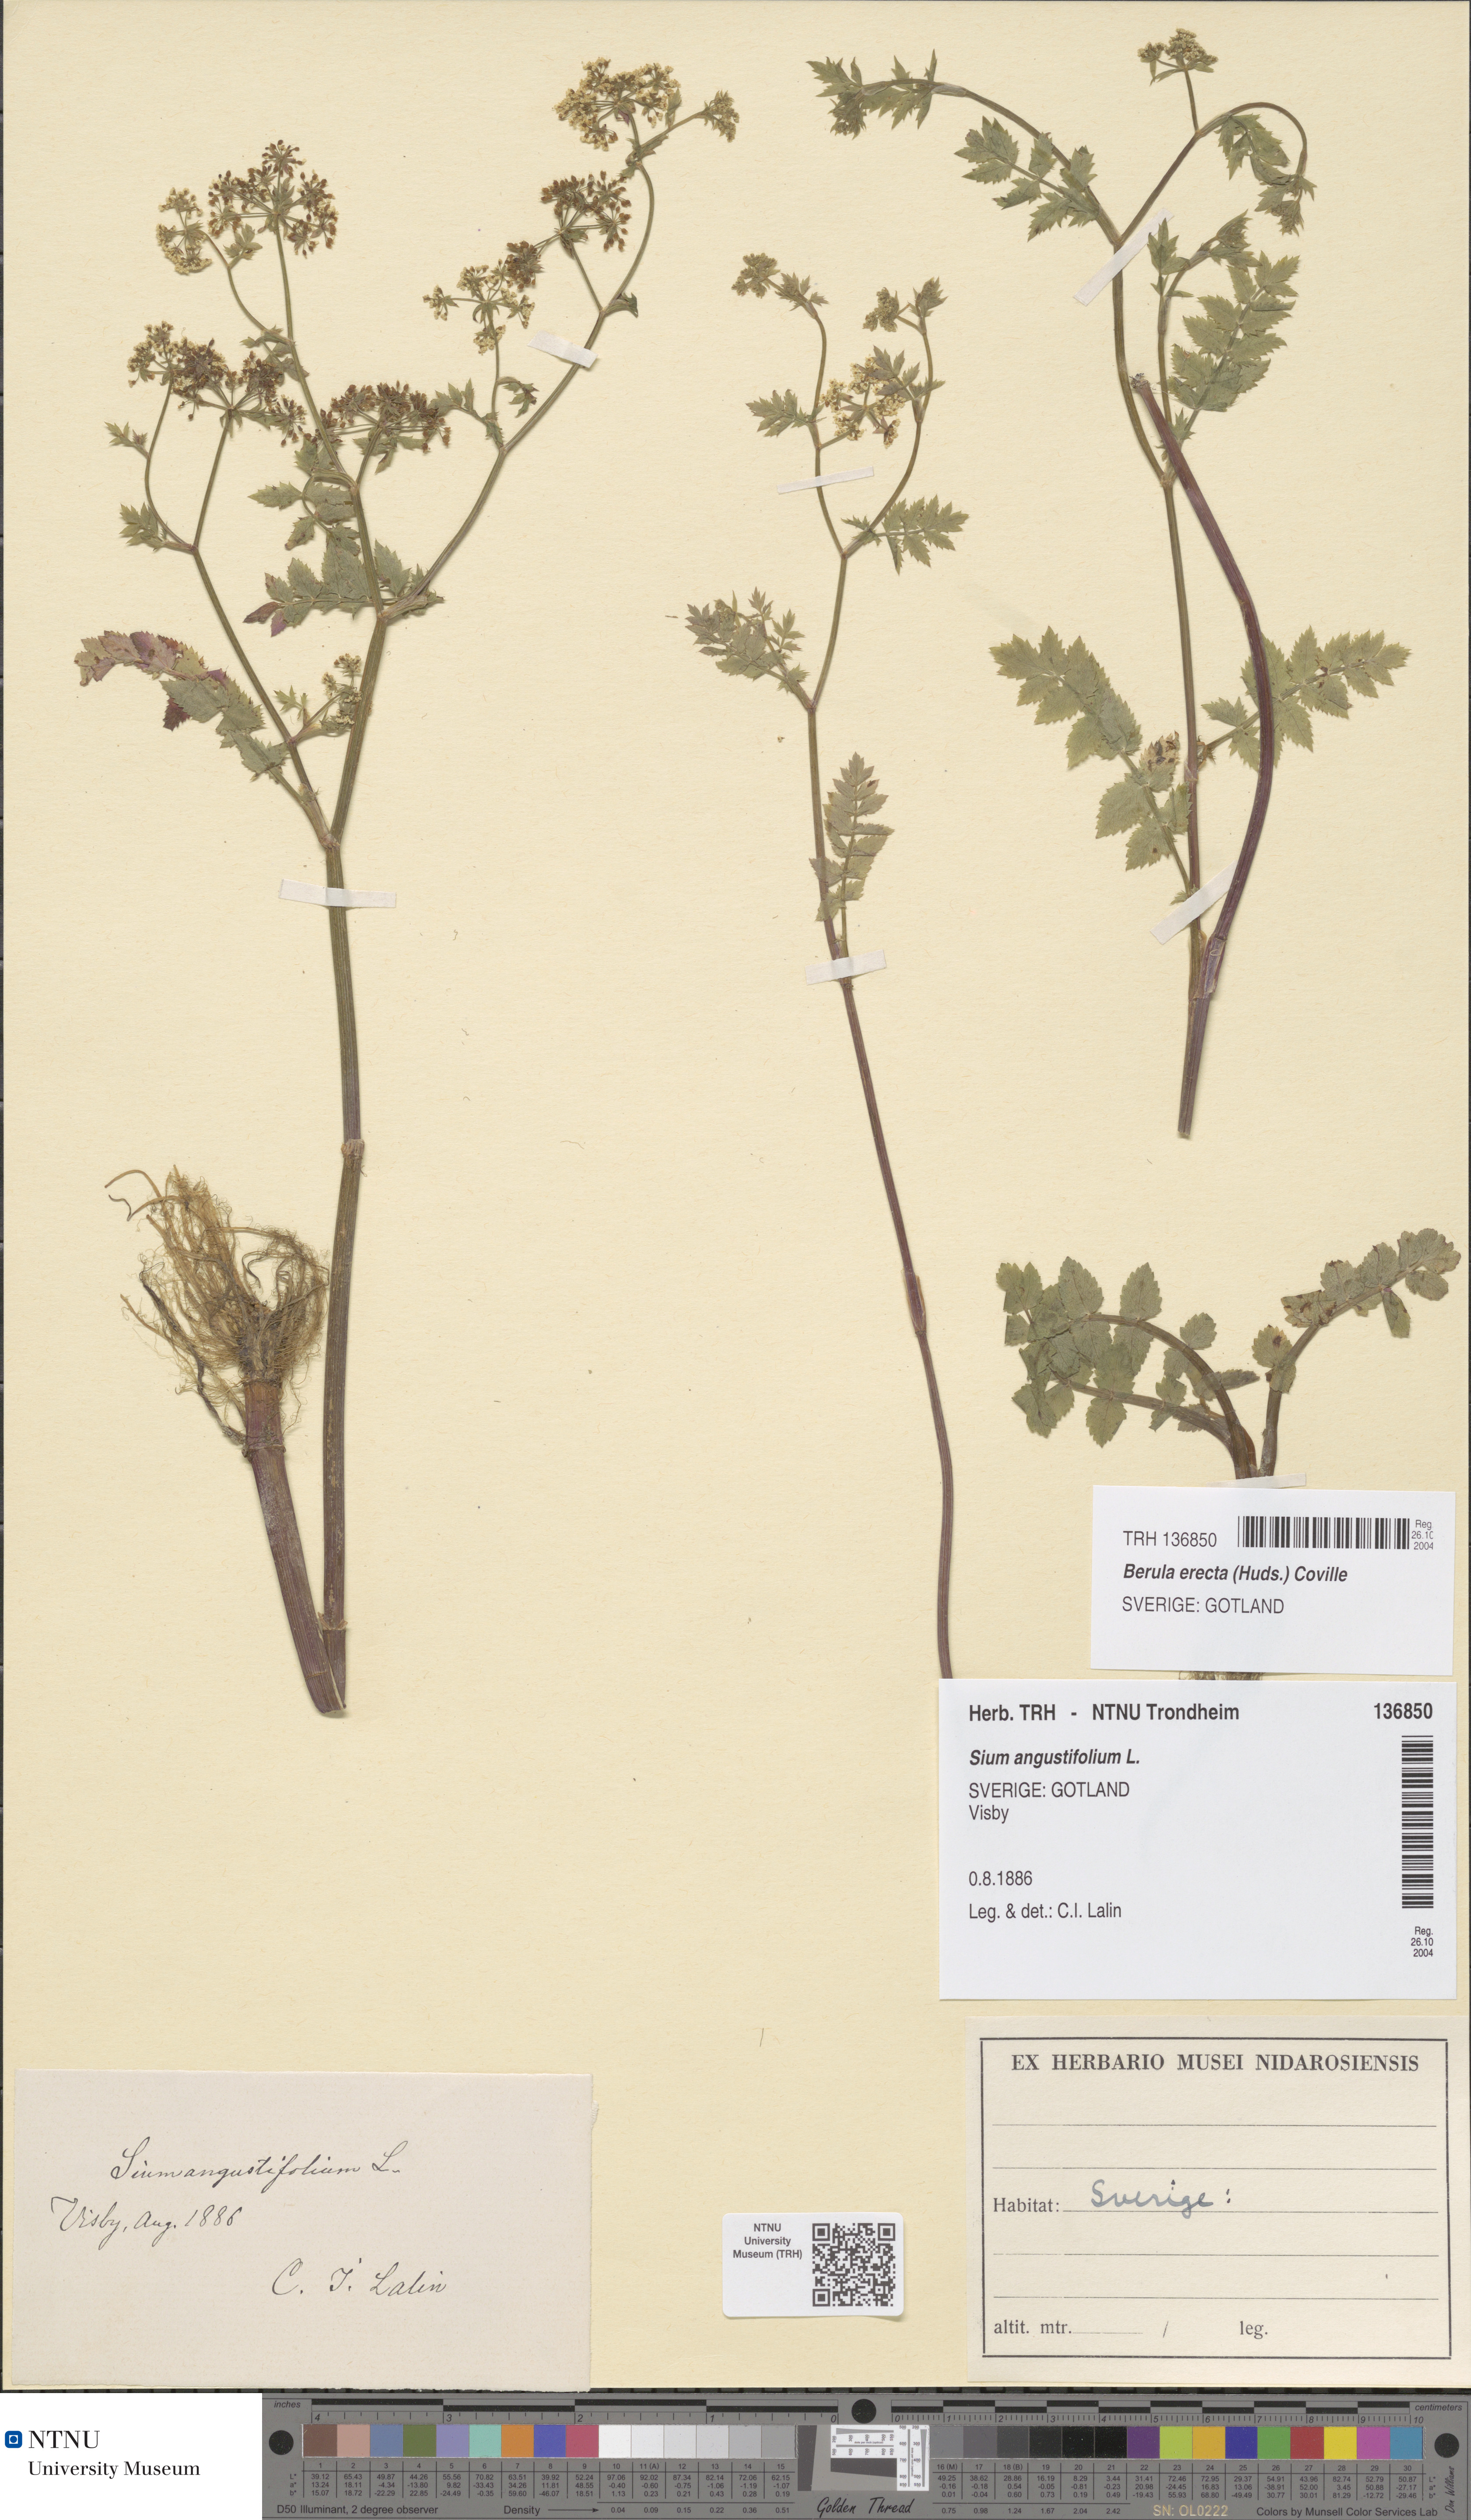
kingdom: Plantae
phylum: Tracheophyta
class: Magnoliopsida
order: Apiales
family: Apiaceae
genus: Berula
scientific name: Berula erecta
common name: Lesser water-parsnip
